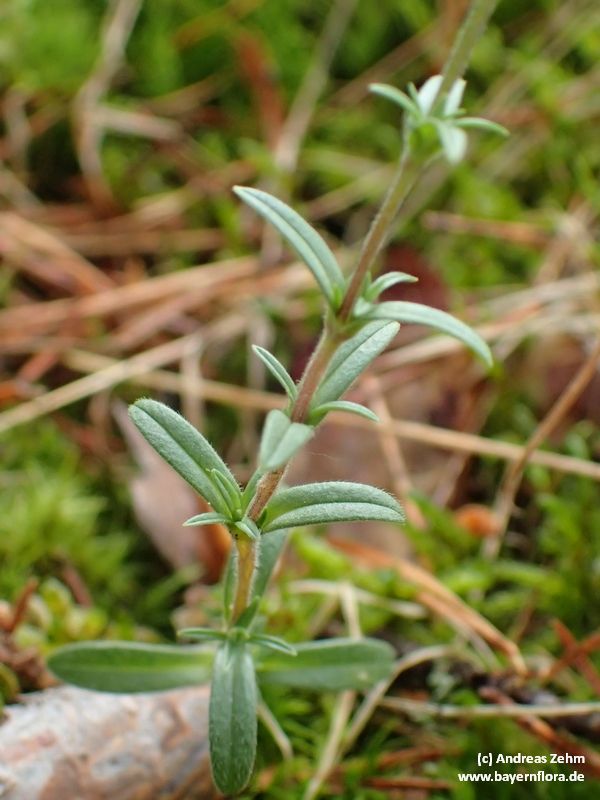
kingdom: Plantae
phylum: Tracheophyta
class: Magnoliopsida
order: Caryophyllales
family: Caryophyllaceae
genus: Cerastium
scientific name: Cerastium arvense
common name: Field mouse-ear
